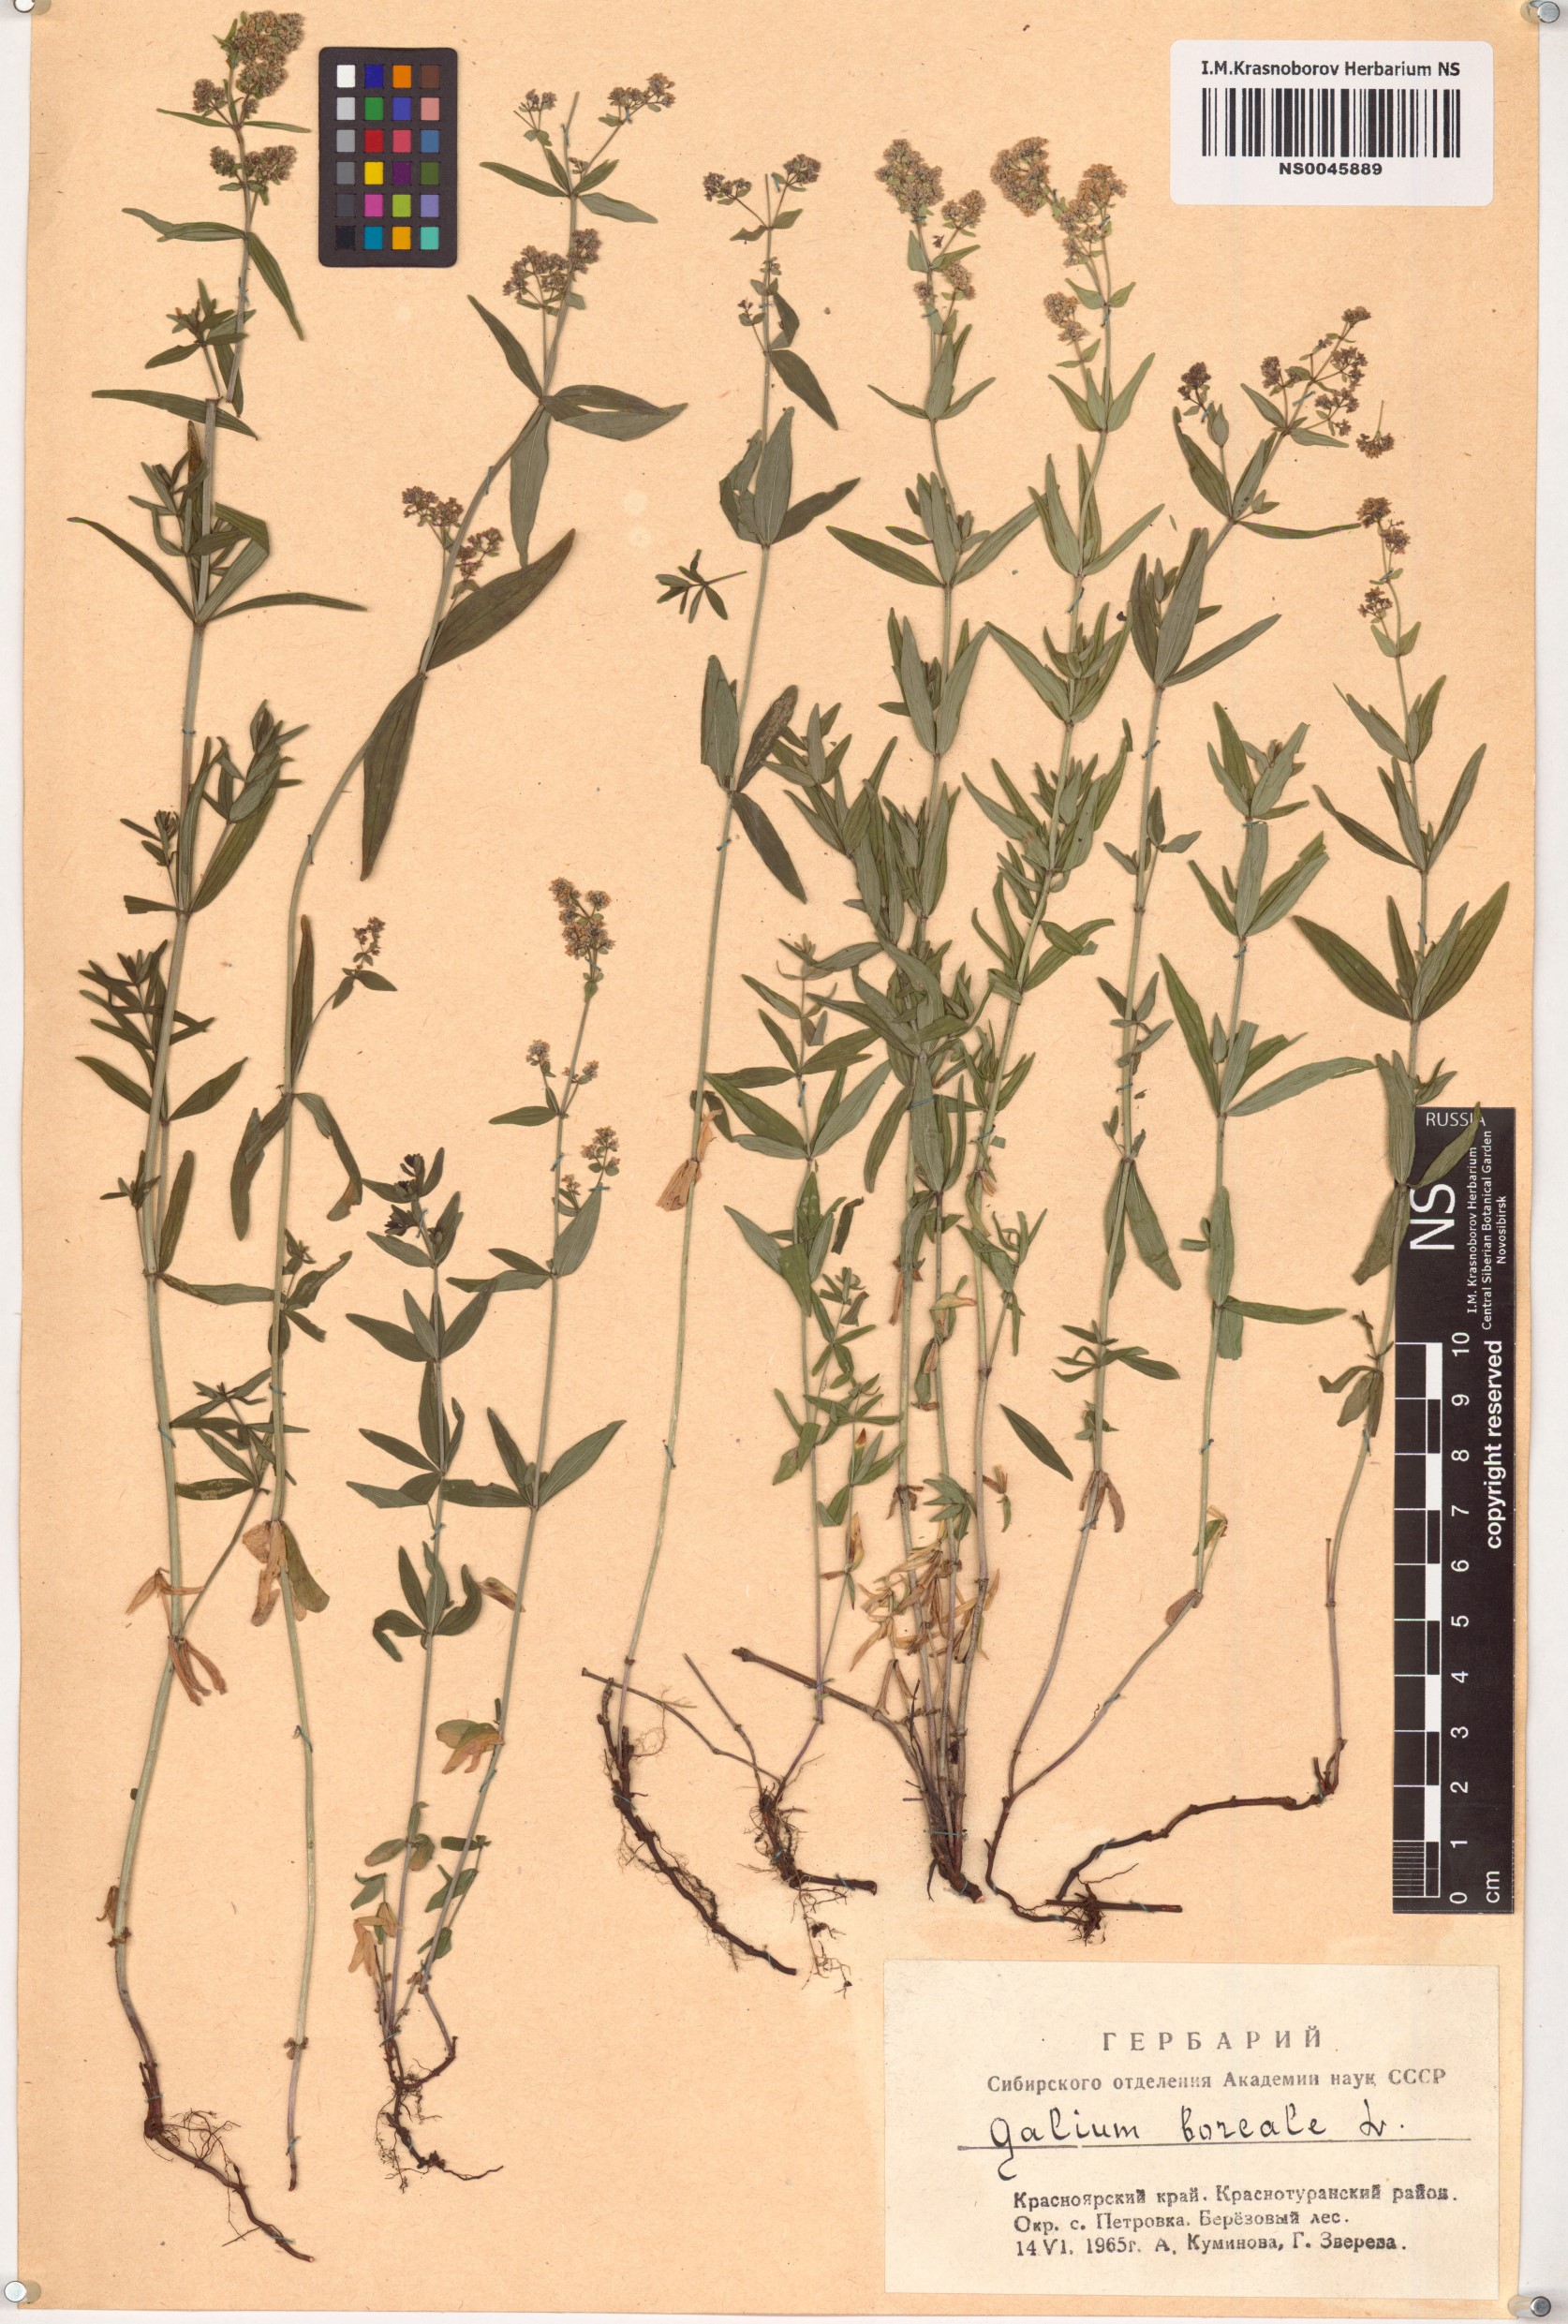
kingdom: Plantae
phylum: Tracheophyta
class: Magnoliopsida
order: Gentianales
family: Rubiaceae
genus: Galium
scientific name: Galium boreale
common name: Northern bedstraw
